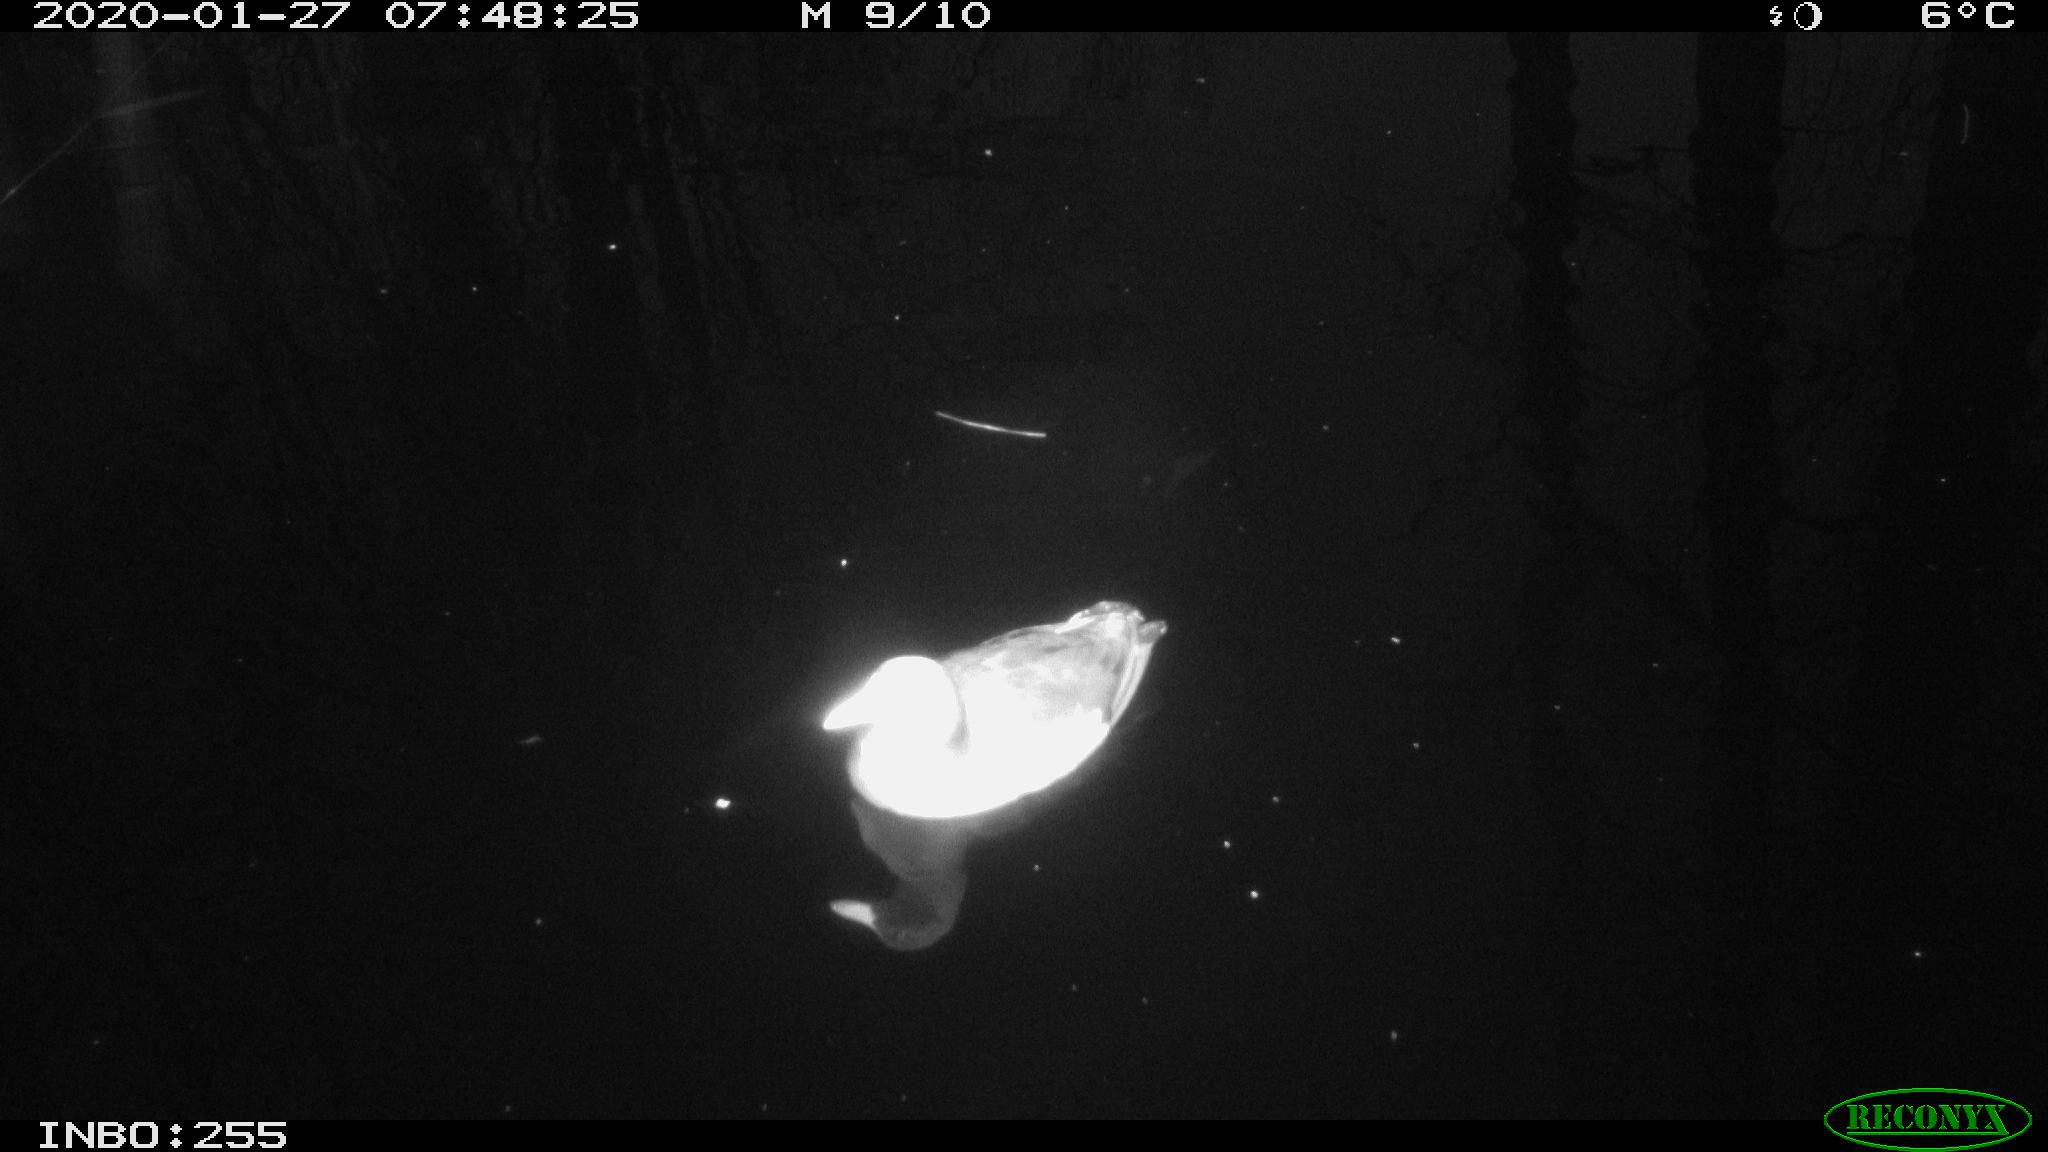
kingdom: Animalia
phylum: Chordata
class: Aves
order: Gruiformes
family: Rallidae
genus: Gallinula
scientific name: Gallinula chloropus
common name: Common moorhen
